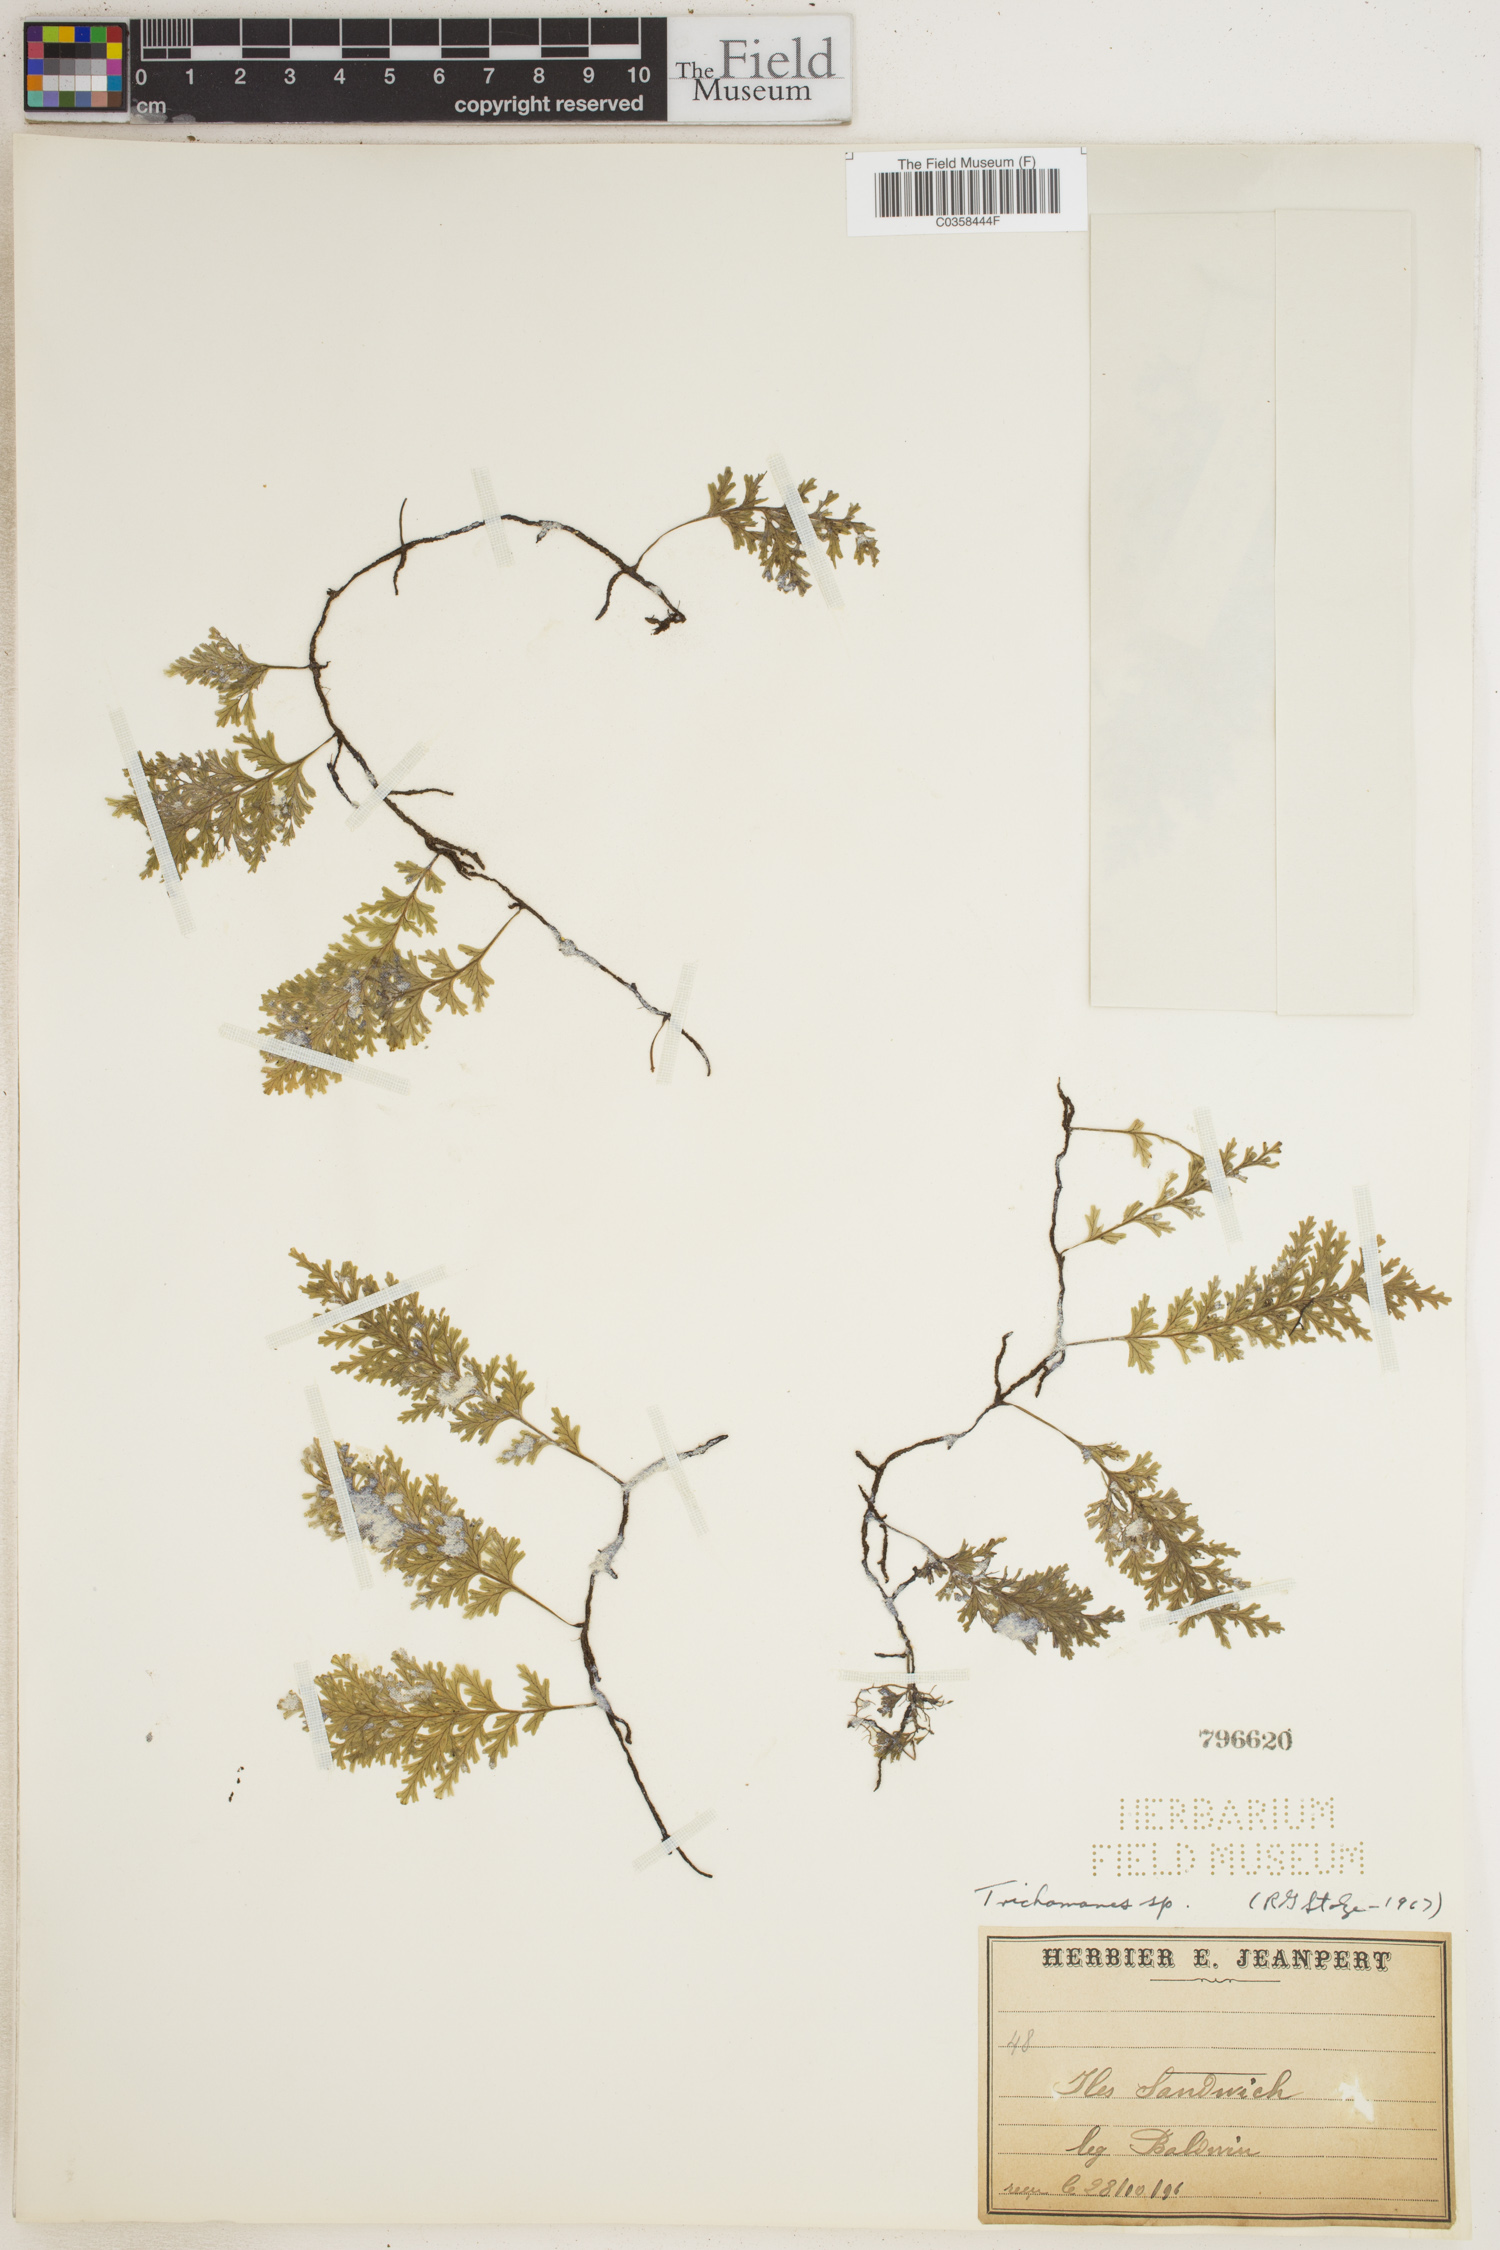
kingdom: Plantae
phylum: Tracheophyta
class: Polypodiopsida
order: Hymenophyllales
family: Hymenophyllaceae
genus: Trichomanes
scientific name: Trichomanes
